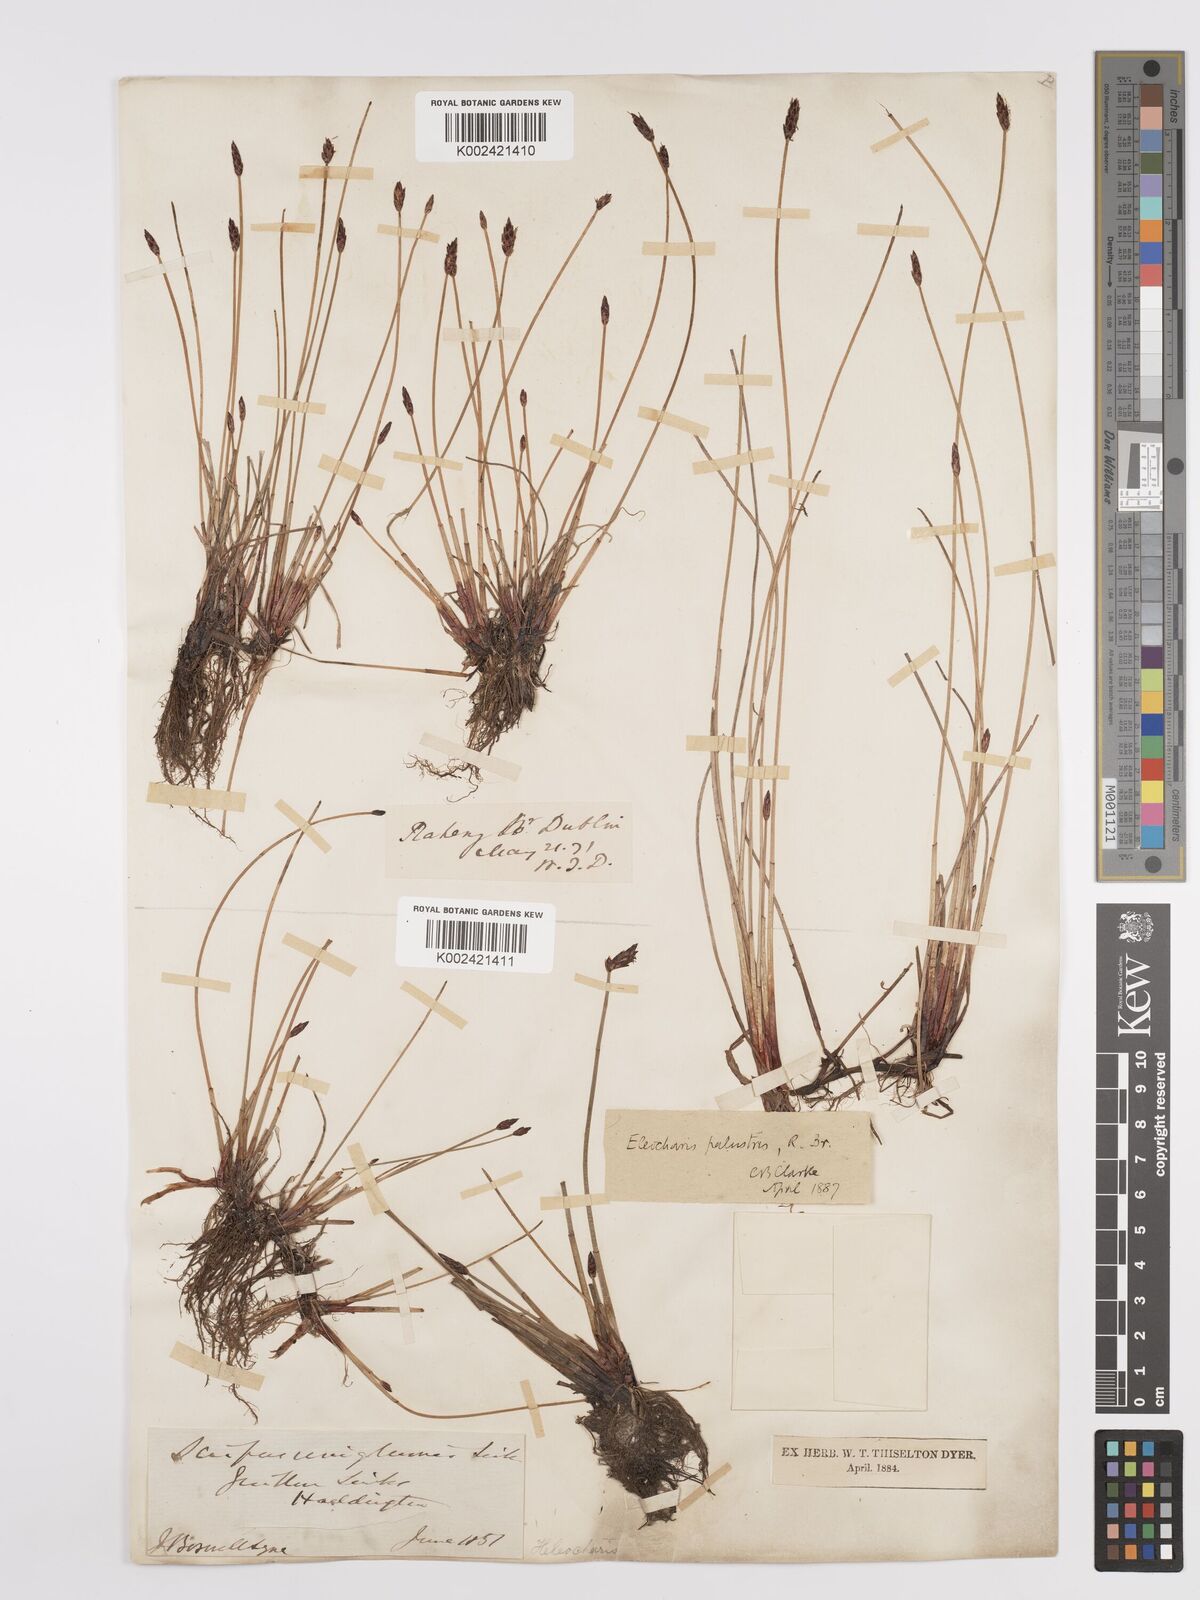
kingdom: Plantae
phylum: Tracheophyta
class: Liliopsida
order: Poales
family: Cyperaceae
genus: Eleocharis
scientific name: Eleocharis uniglumis
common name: Slender spike-rush
